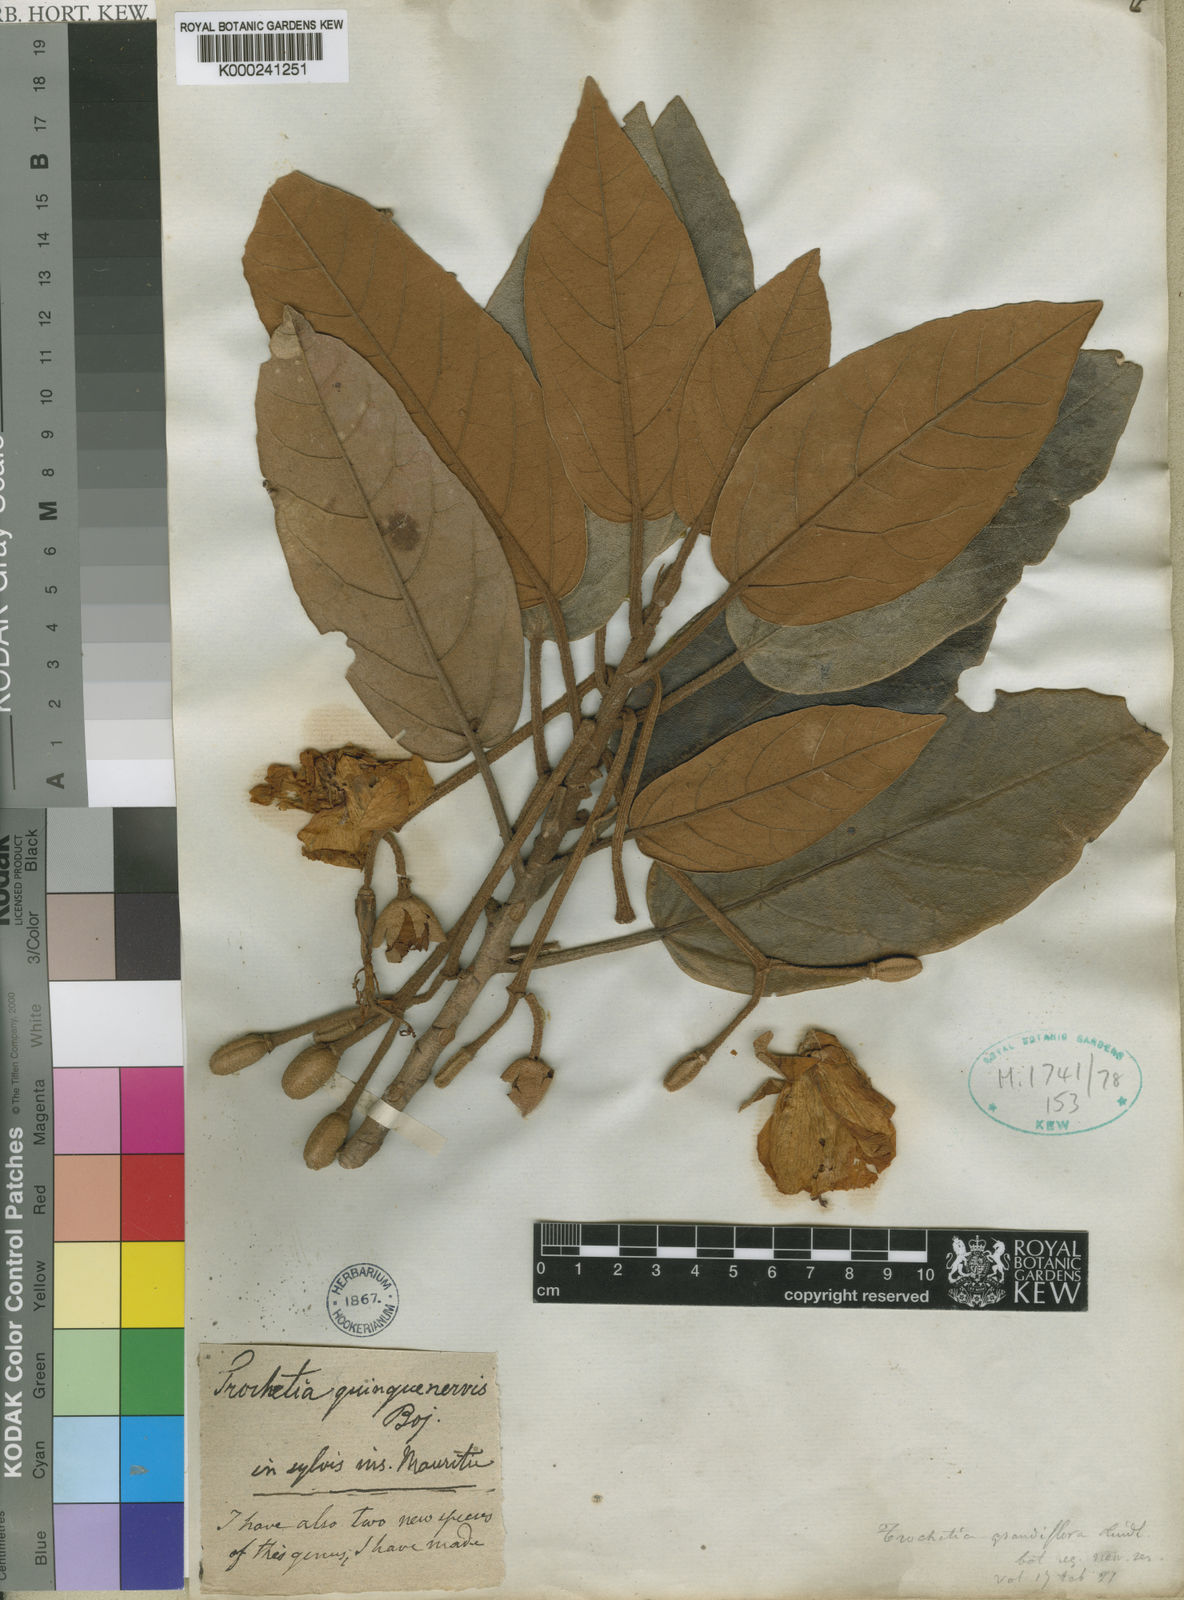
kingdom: Plantae
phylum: Tracheophyta
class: Magnoliopsida
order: Malvales
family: Malvaceae
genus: Ruizia
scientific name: Ruizia triflora
